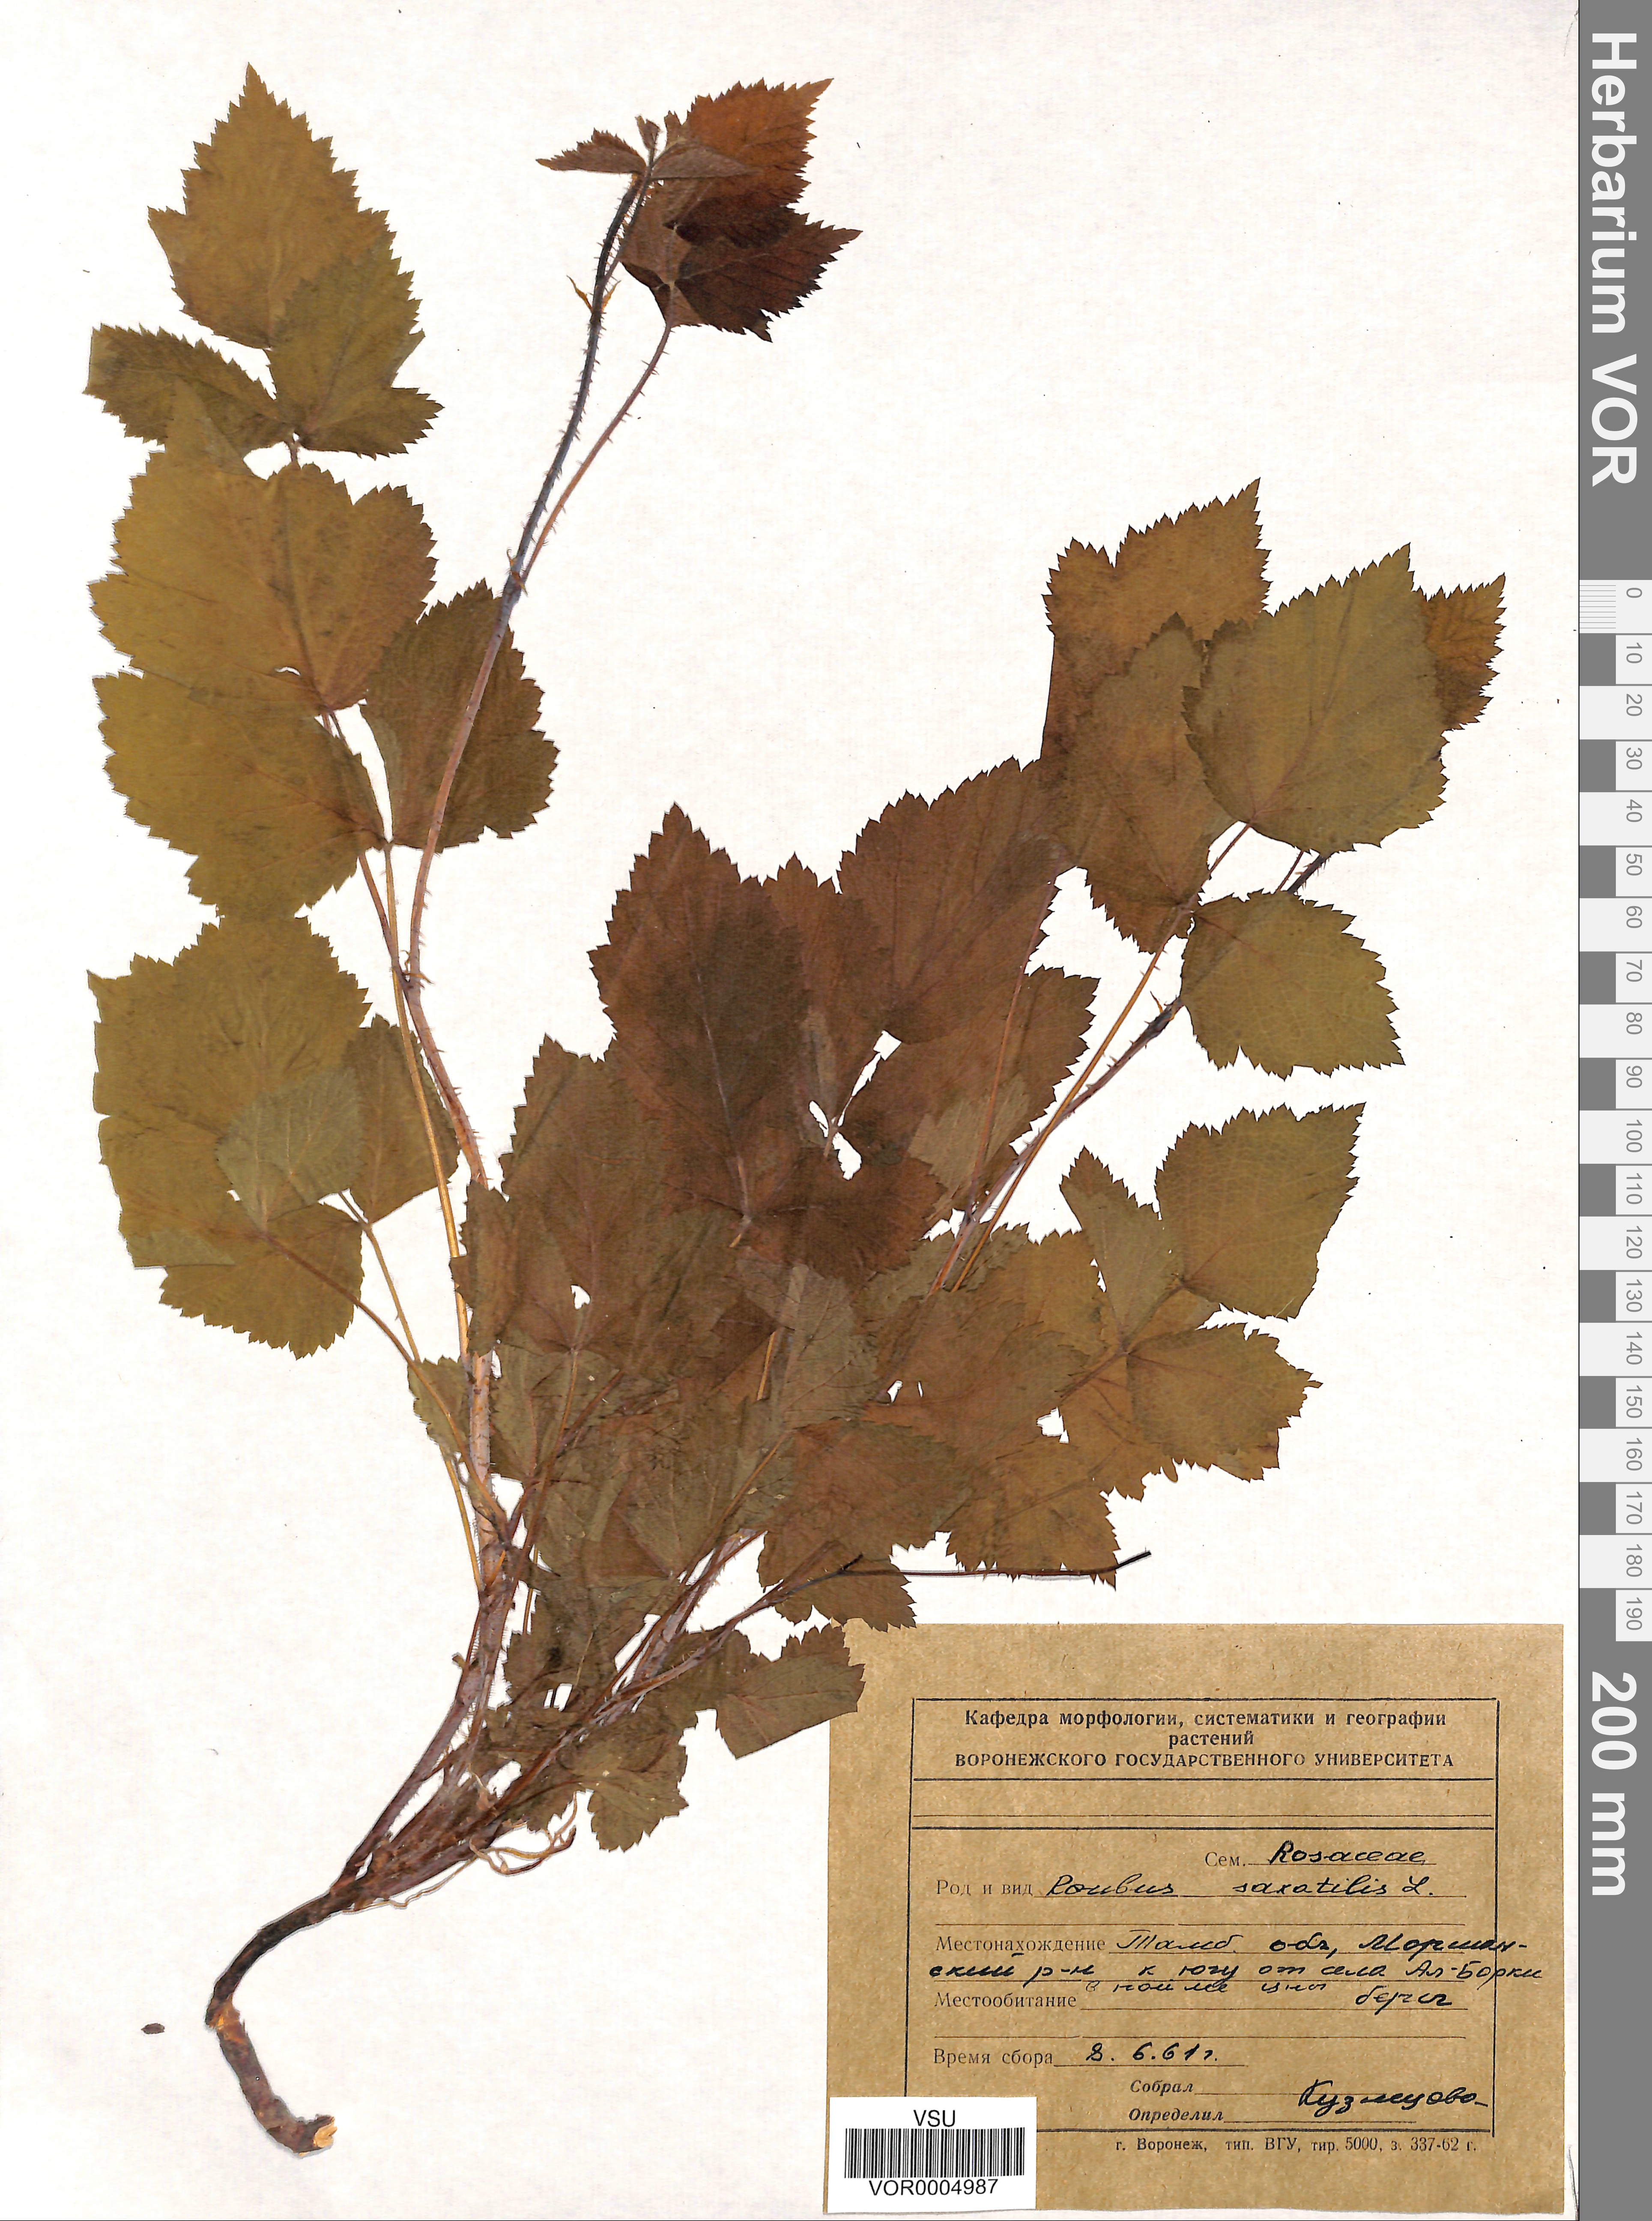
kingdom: Plantae
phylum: Tracheophyta
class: Magnoliopsida
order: Rosales
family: Rosaceae
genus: Rubus
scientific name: Rubus caesius
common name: Dewberry
